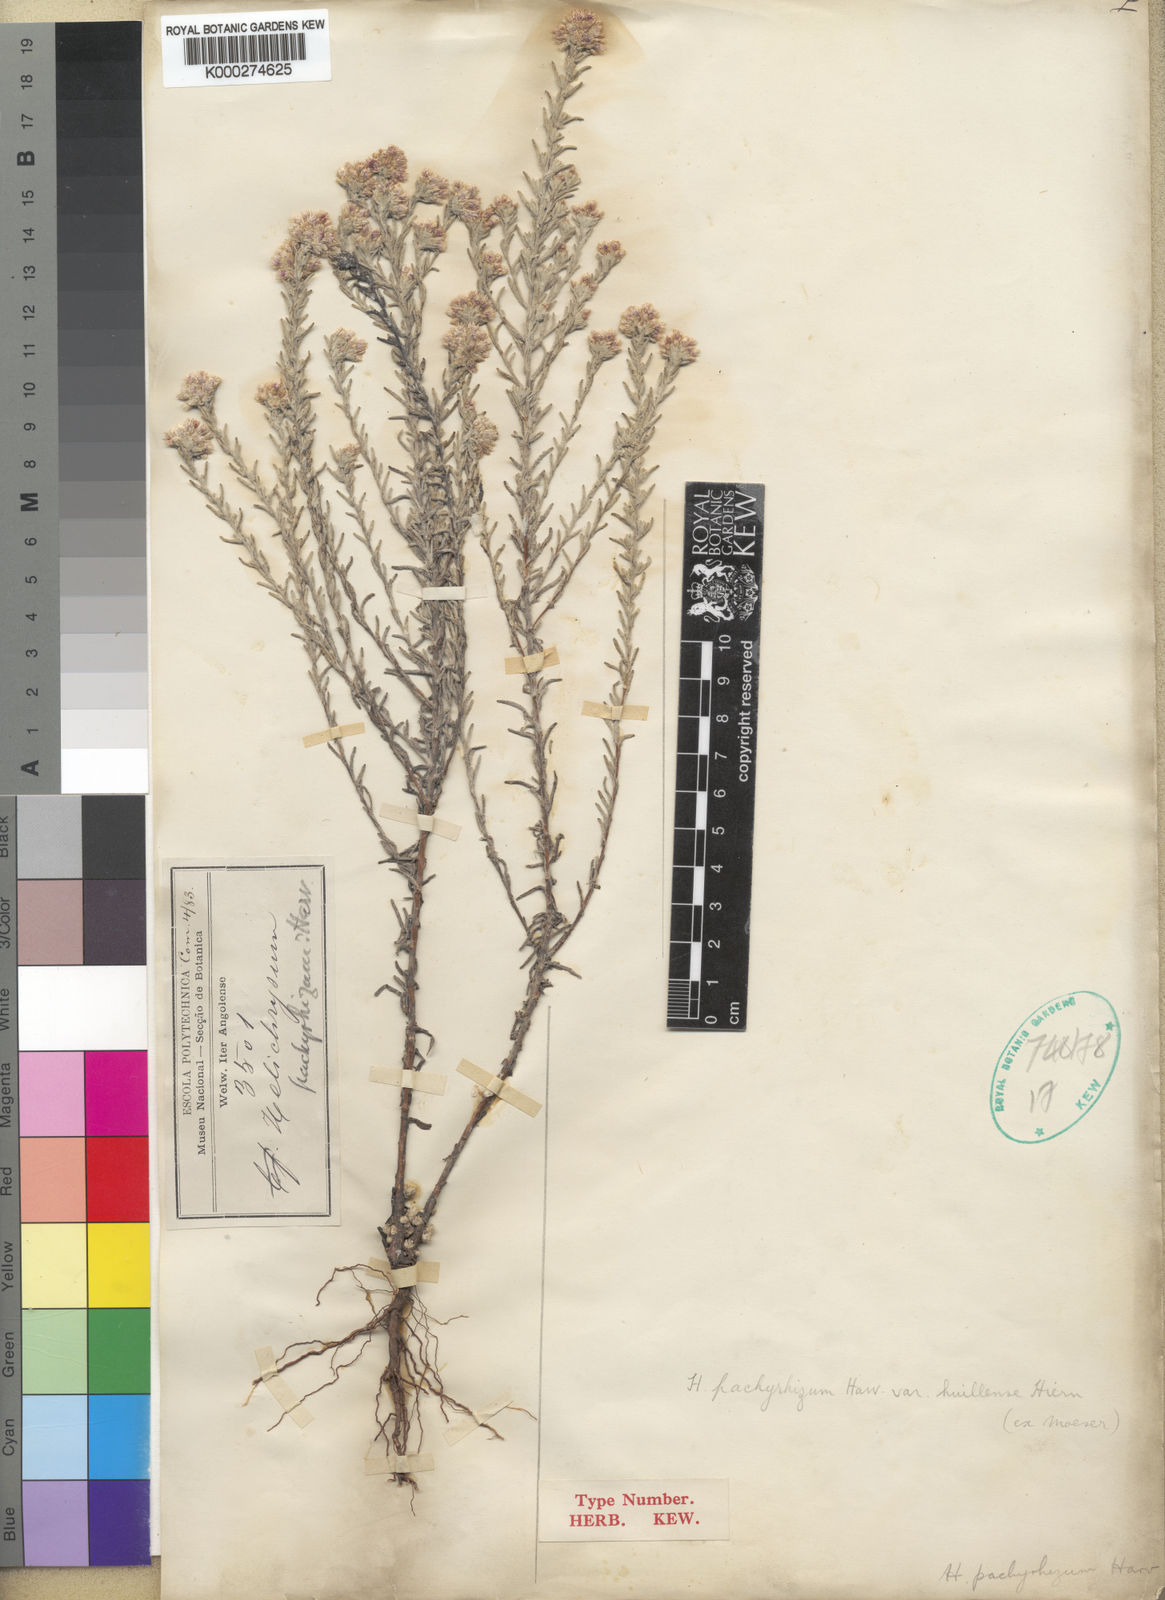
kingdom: Plantae
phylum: Tracheophyta
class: Magnoliopsida
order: Asterales
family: Asteraceae
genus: Helichrysum
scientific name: Helichrysum candolleanum
